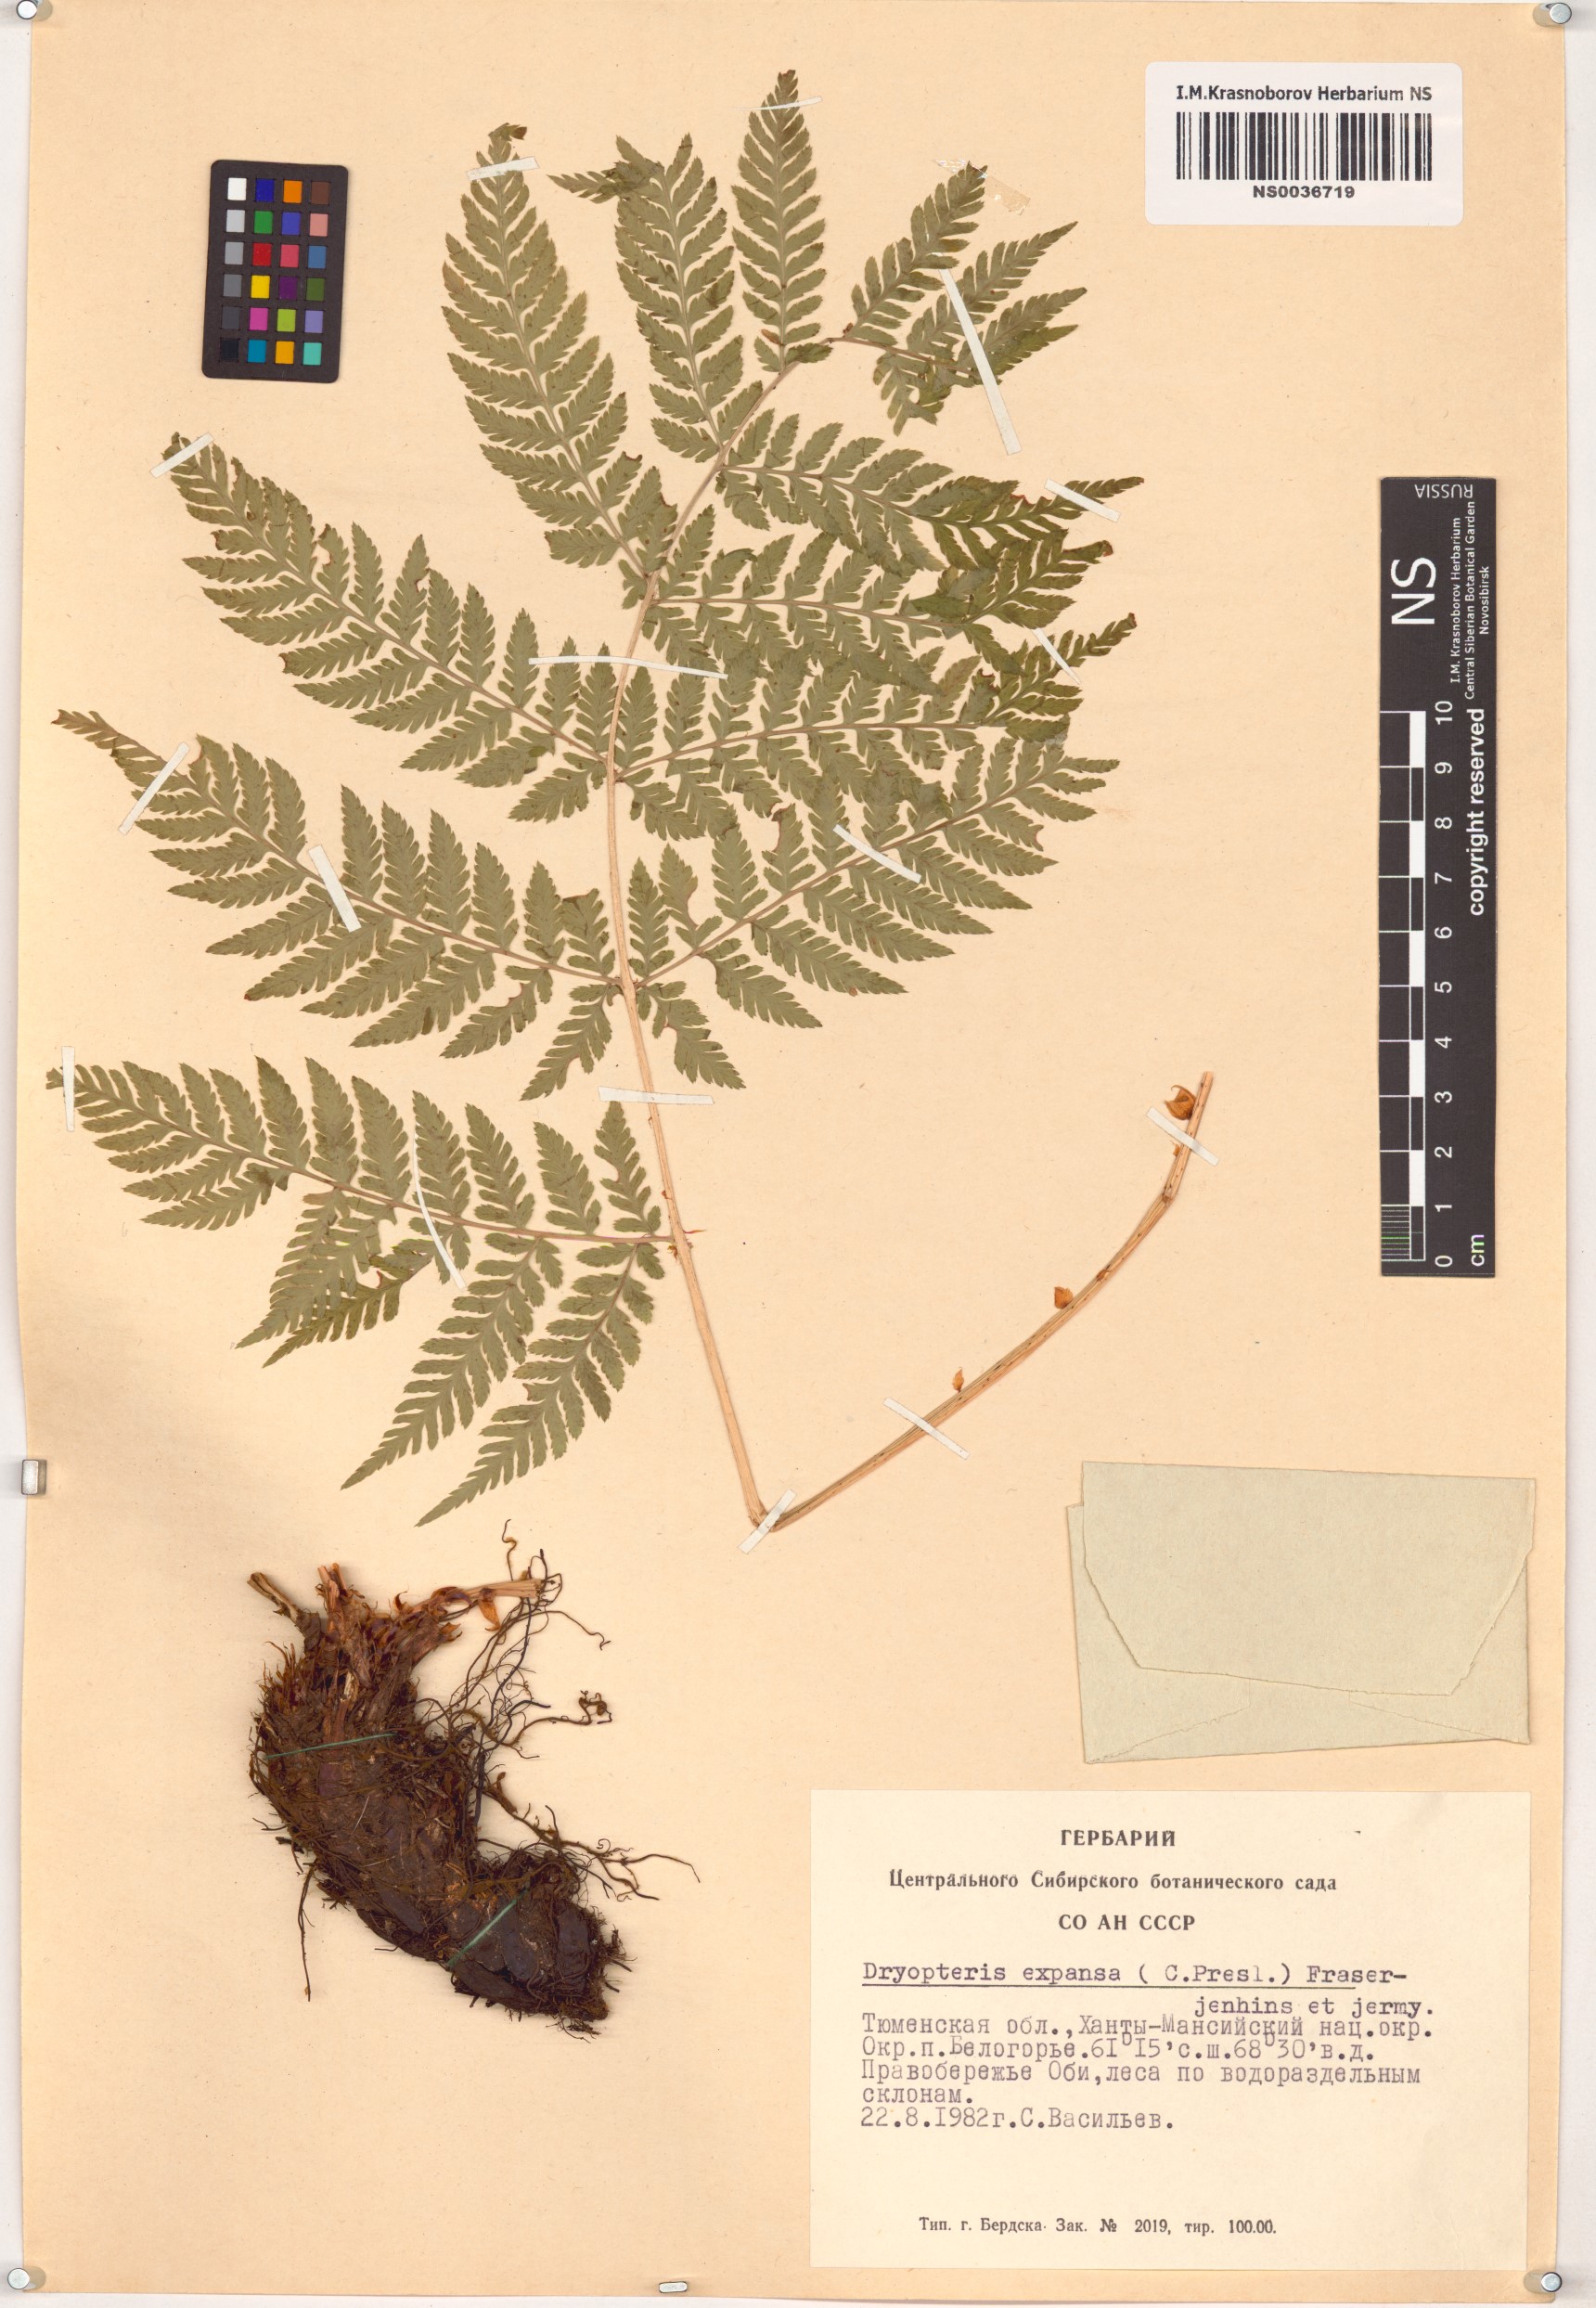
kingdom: Plantae
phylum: Tracheophyta
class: Polypodiopsida
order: Polypodiales
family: Dryopteridaceae
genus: Dryopteris
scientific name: Dryopteris expansa
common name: Northern buckler fern
